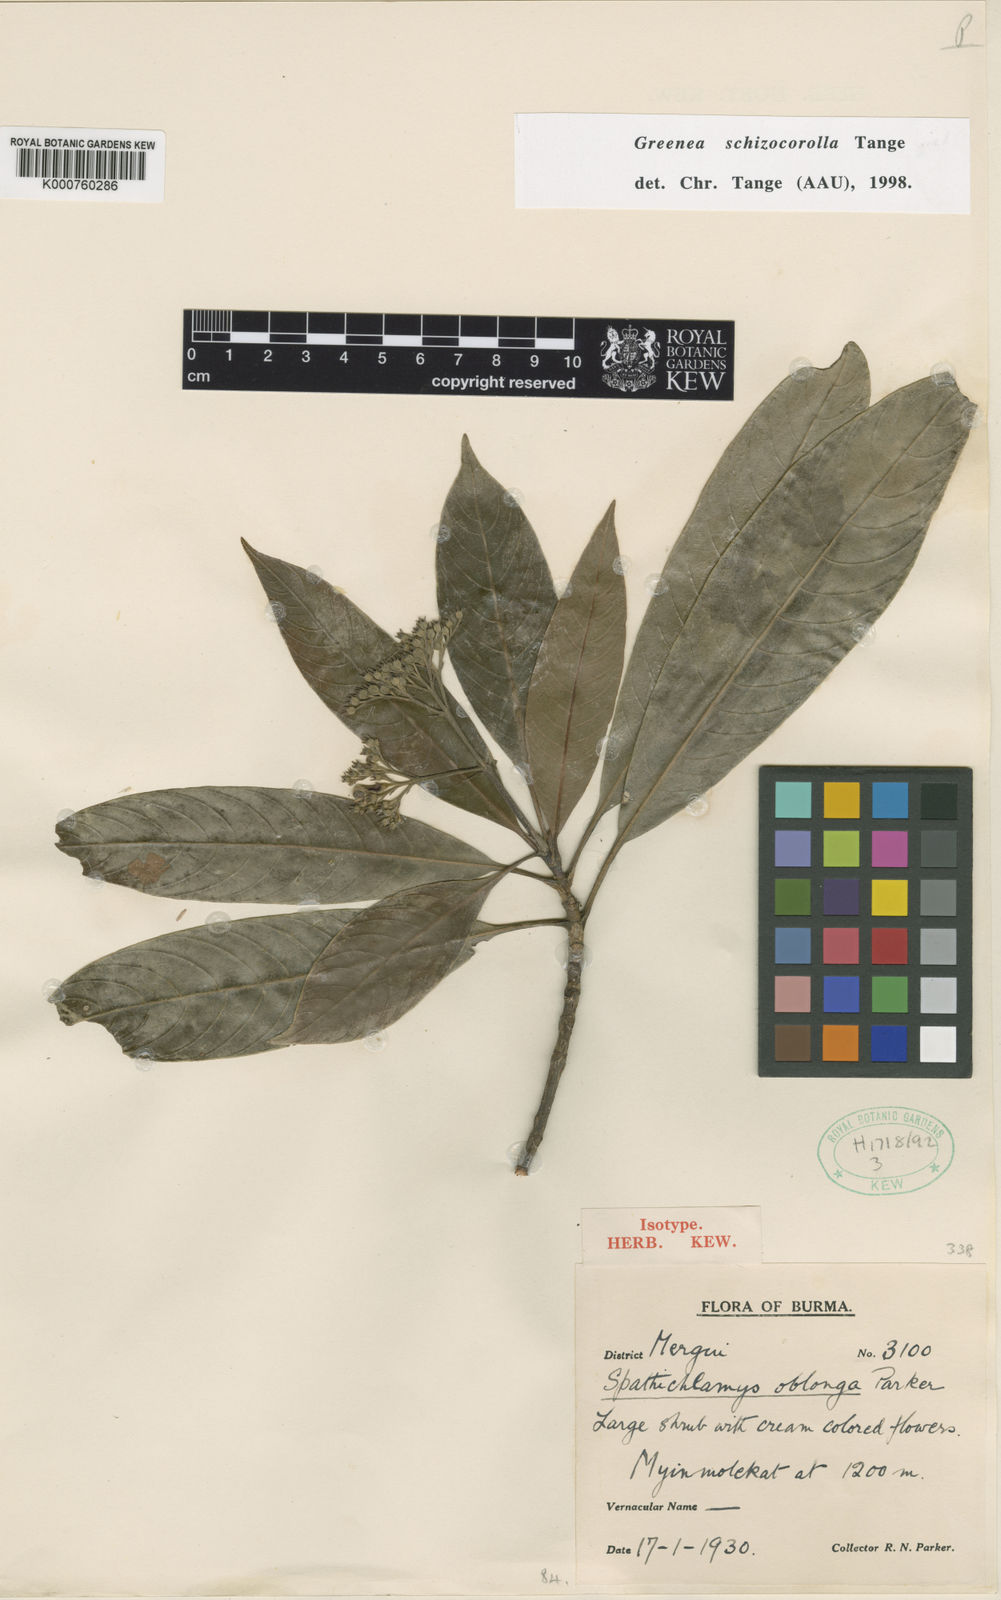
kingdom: Plantae
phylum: Tracheophyta
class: Magnoliopsida
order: Gentianales
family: Rubiaceae
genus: Greenea
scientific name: Greenea schizocorolla
